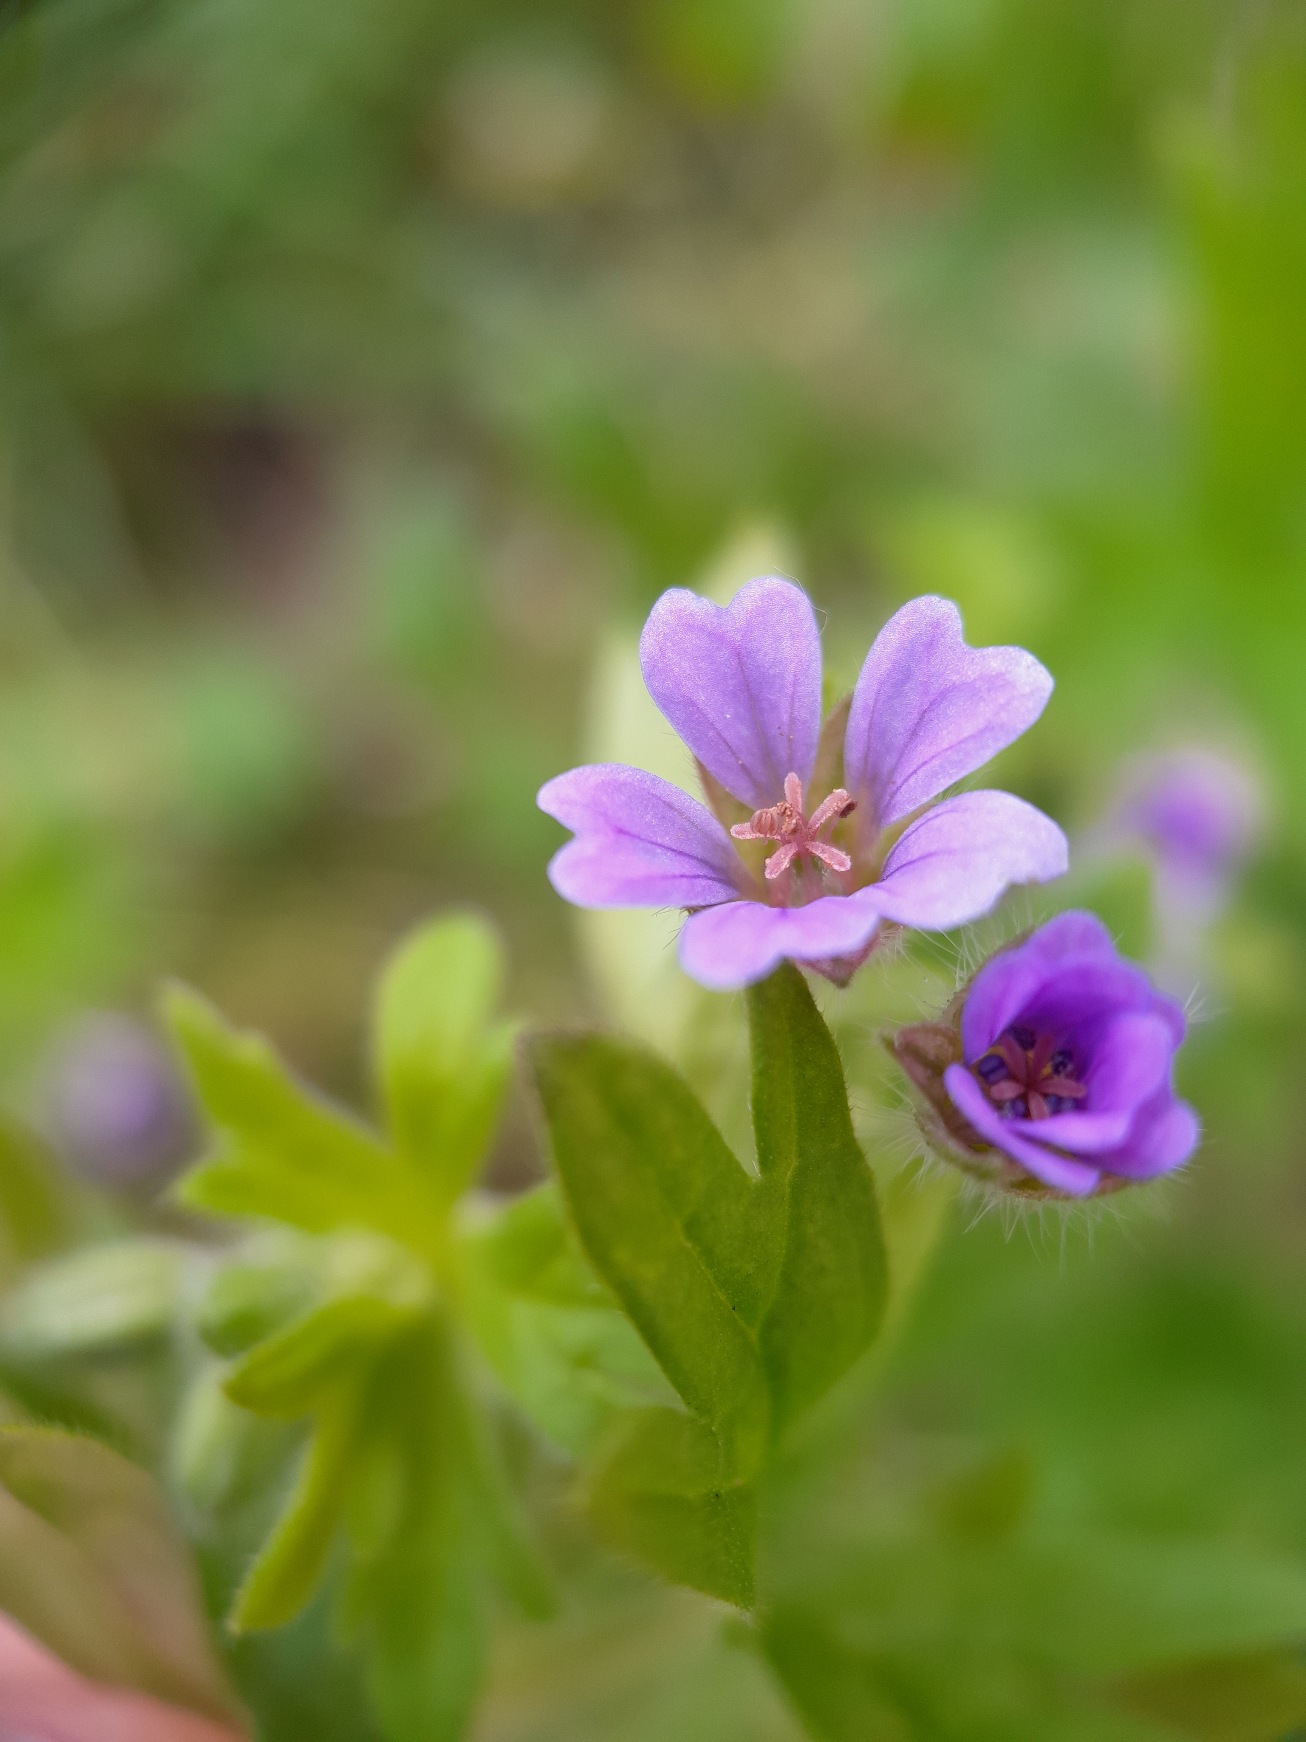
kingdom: Plantae
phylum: Tracheophyta
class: Magnoliopsida
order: Geraniales
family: Geraniaceae
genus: Geranium
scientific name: Geranium pusillum
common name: Liden storkenæb
